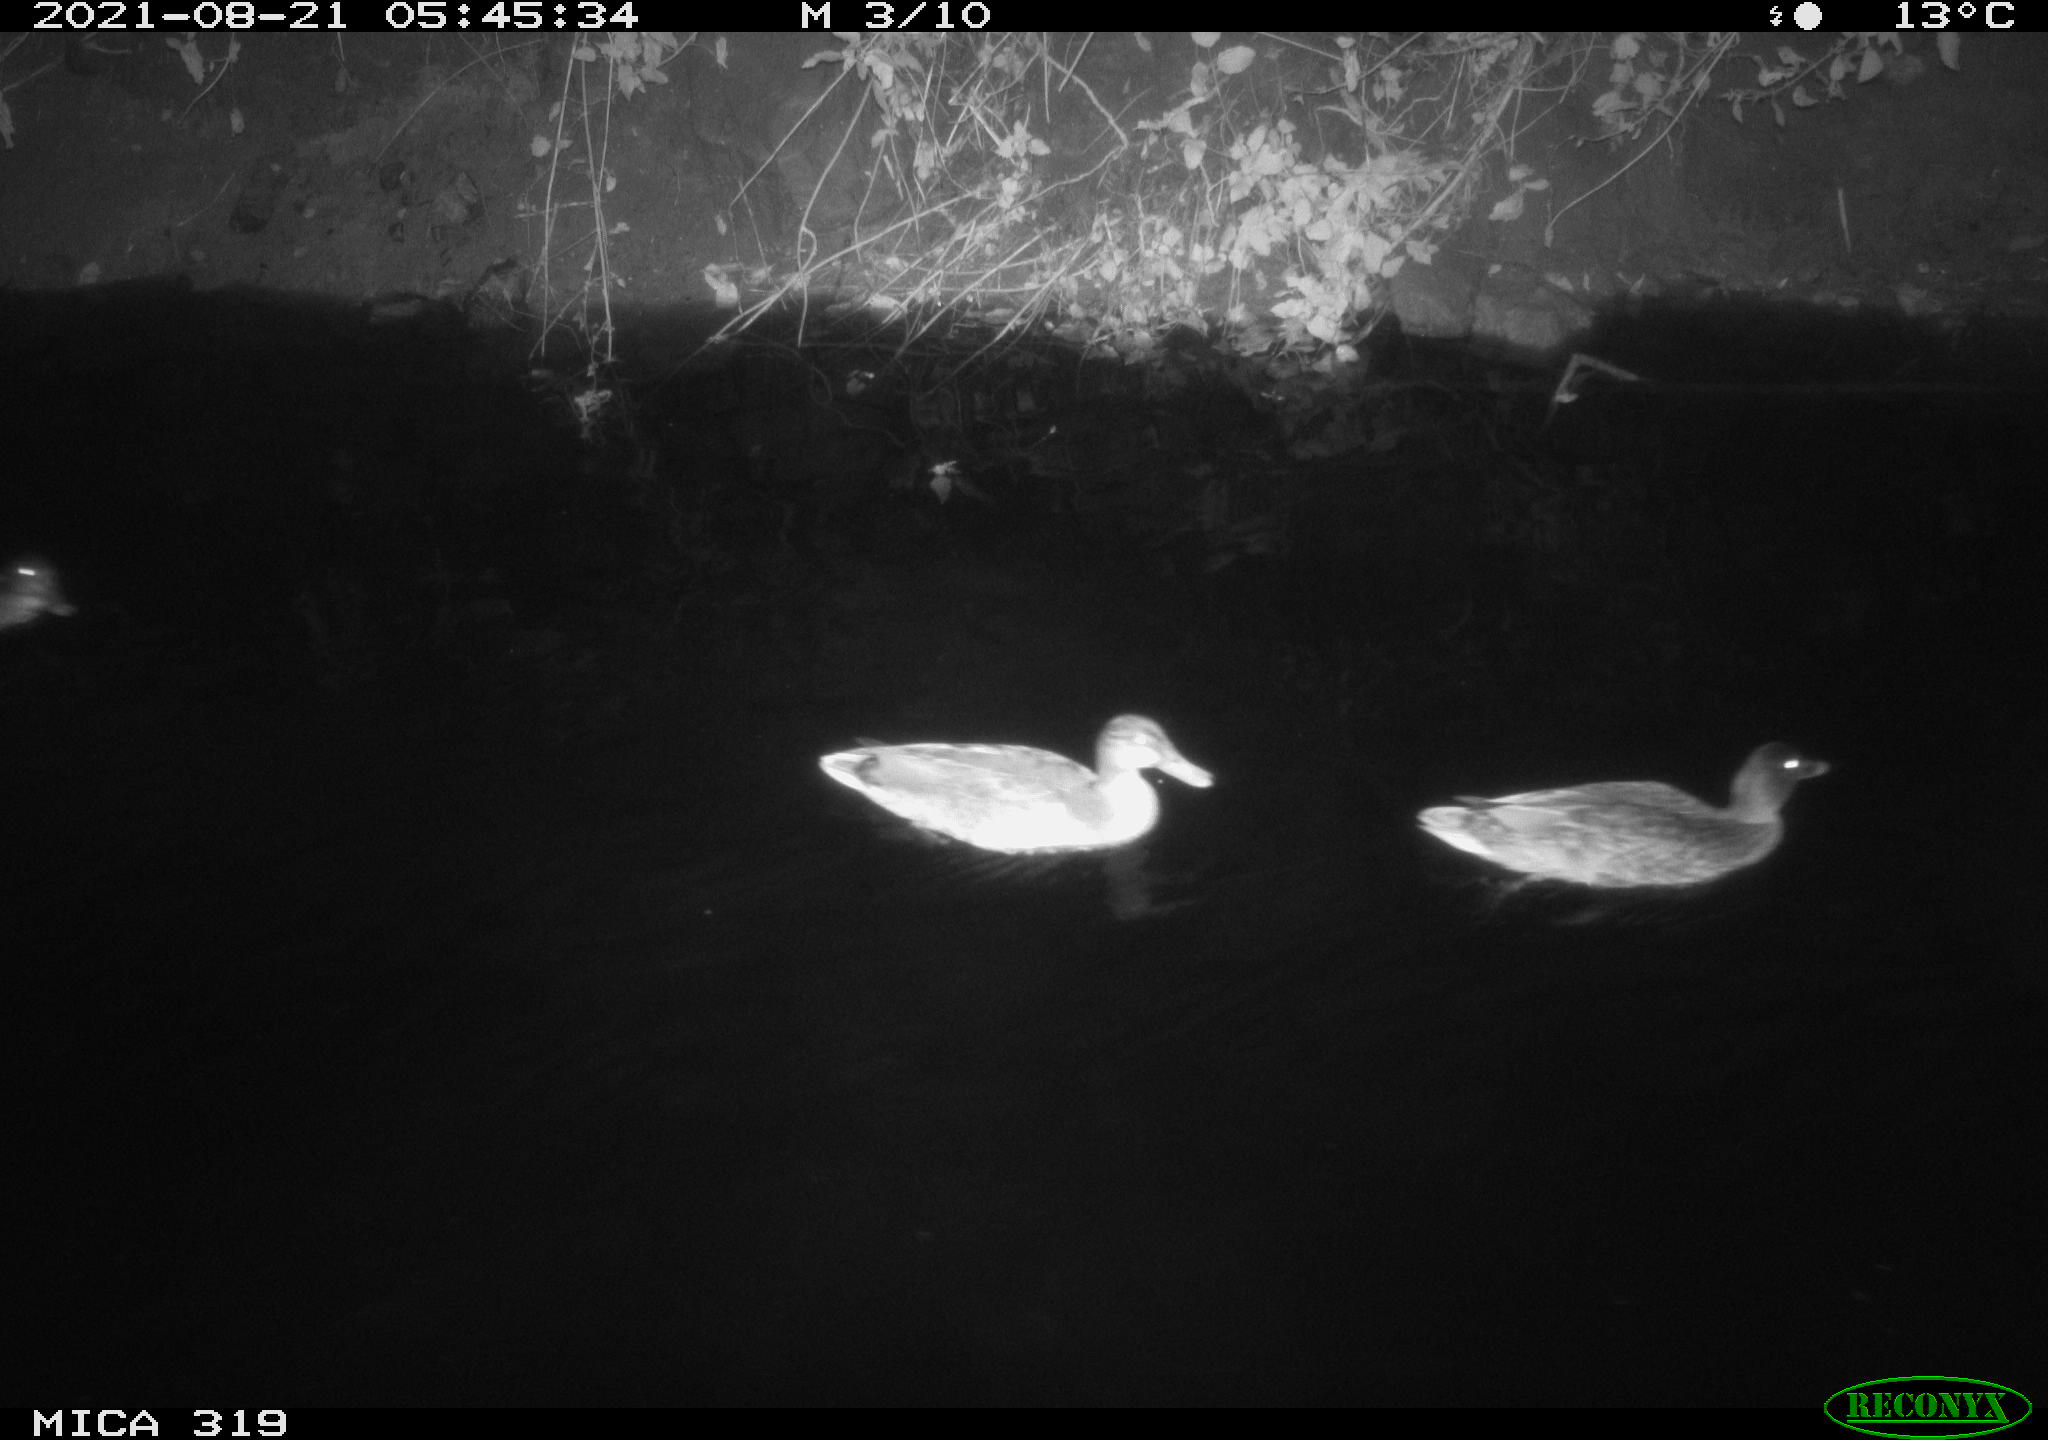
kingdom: Animalia
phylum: Chordata
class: Aves
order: Anseriformes
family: Anatidae
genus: Anas
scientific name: Anas platyrhynchos
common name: Mallard
